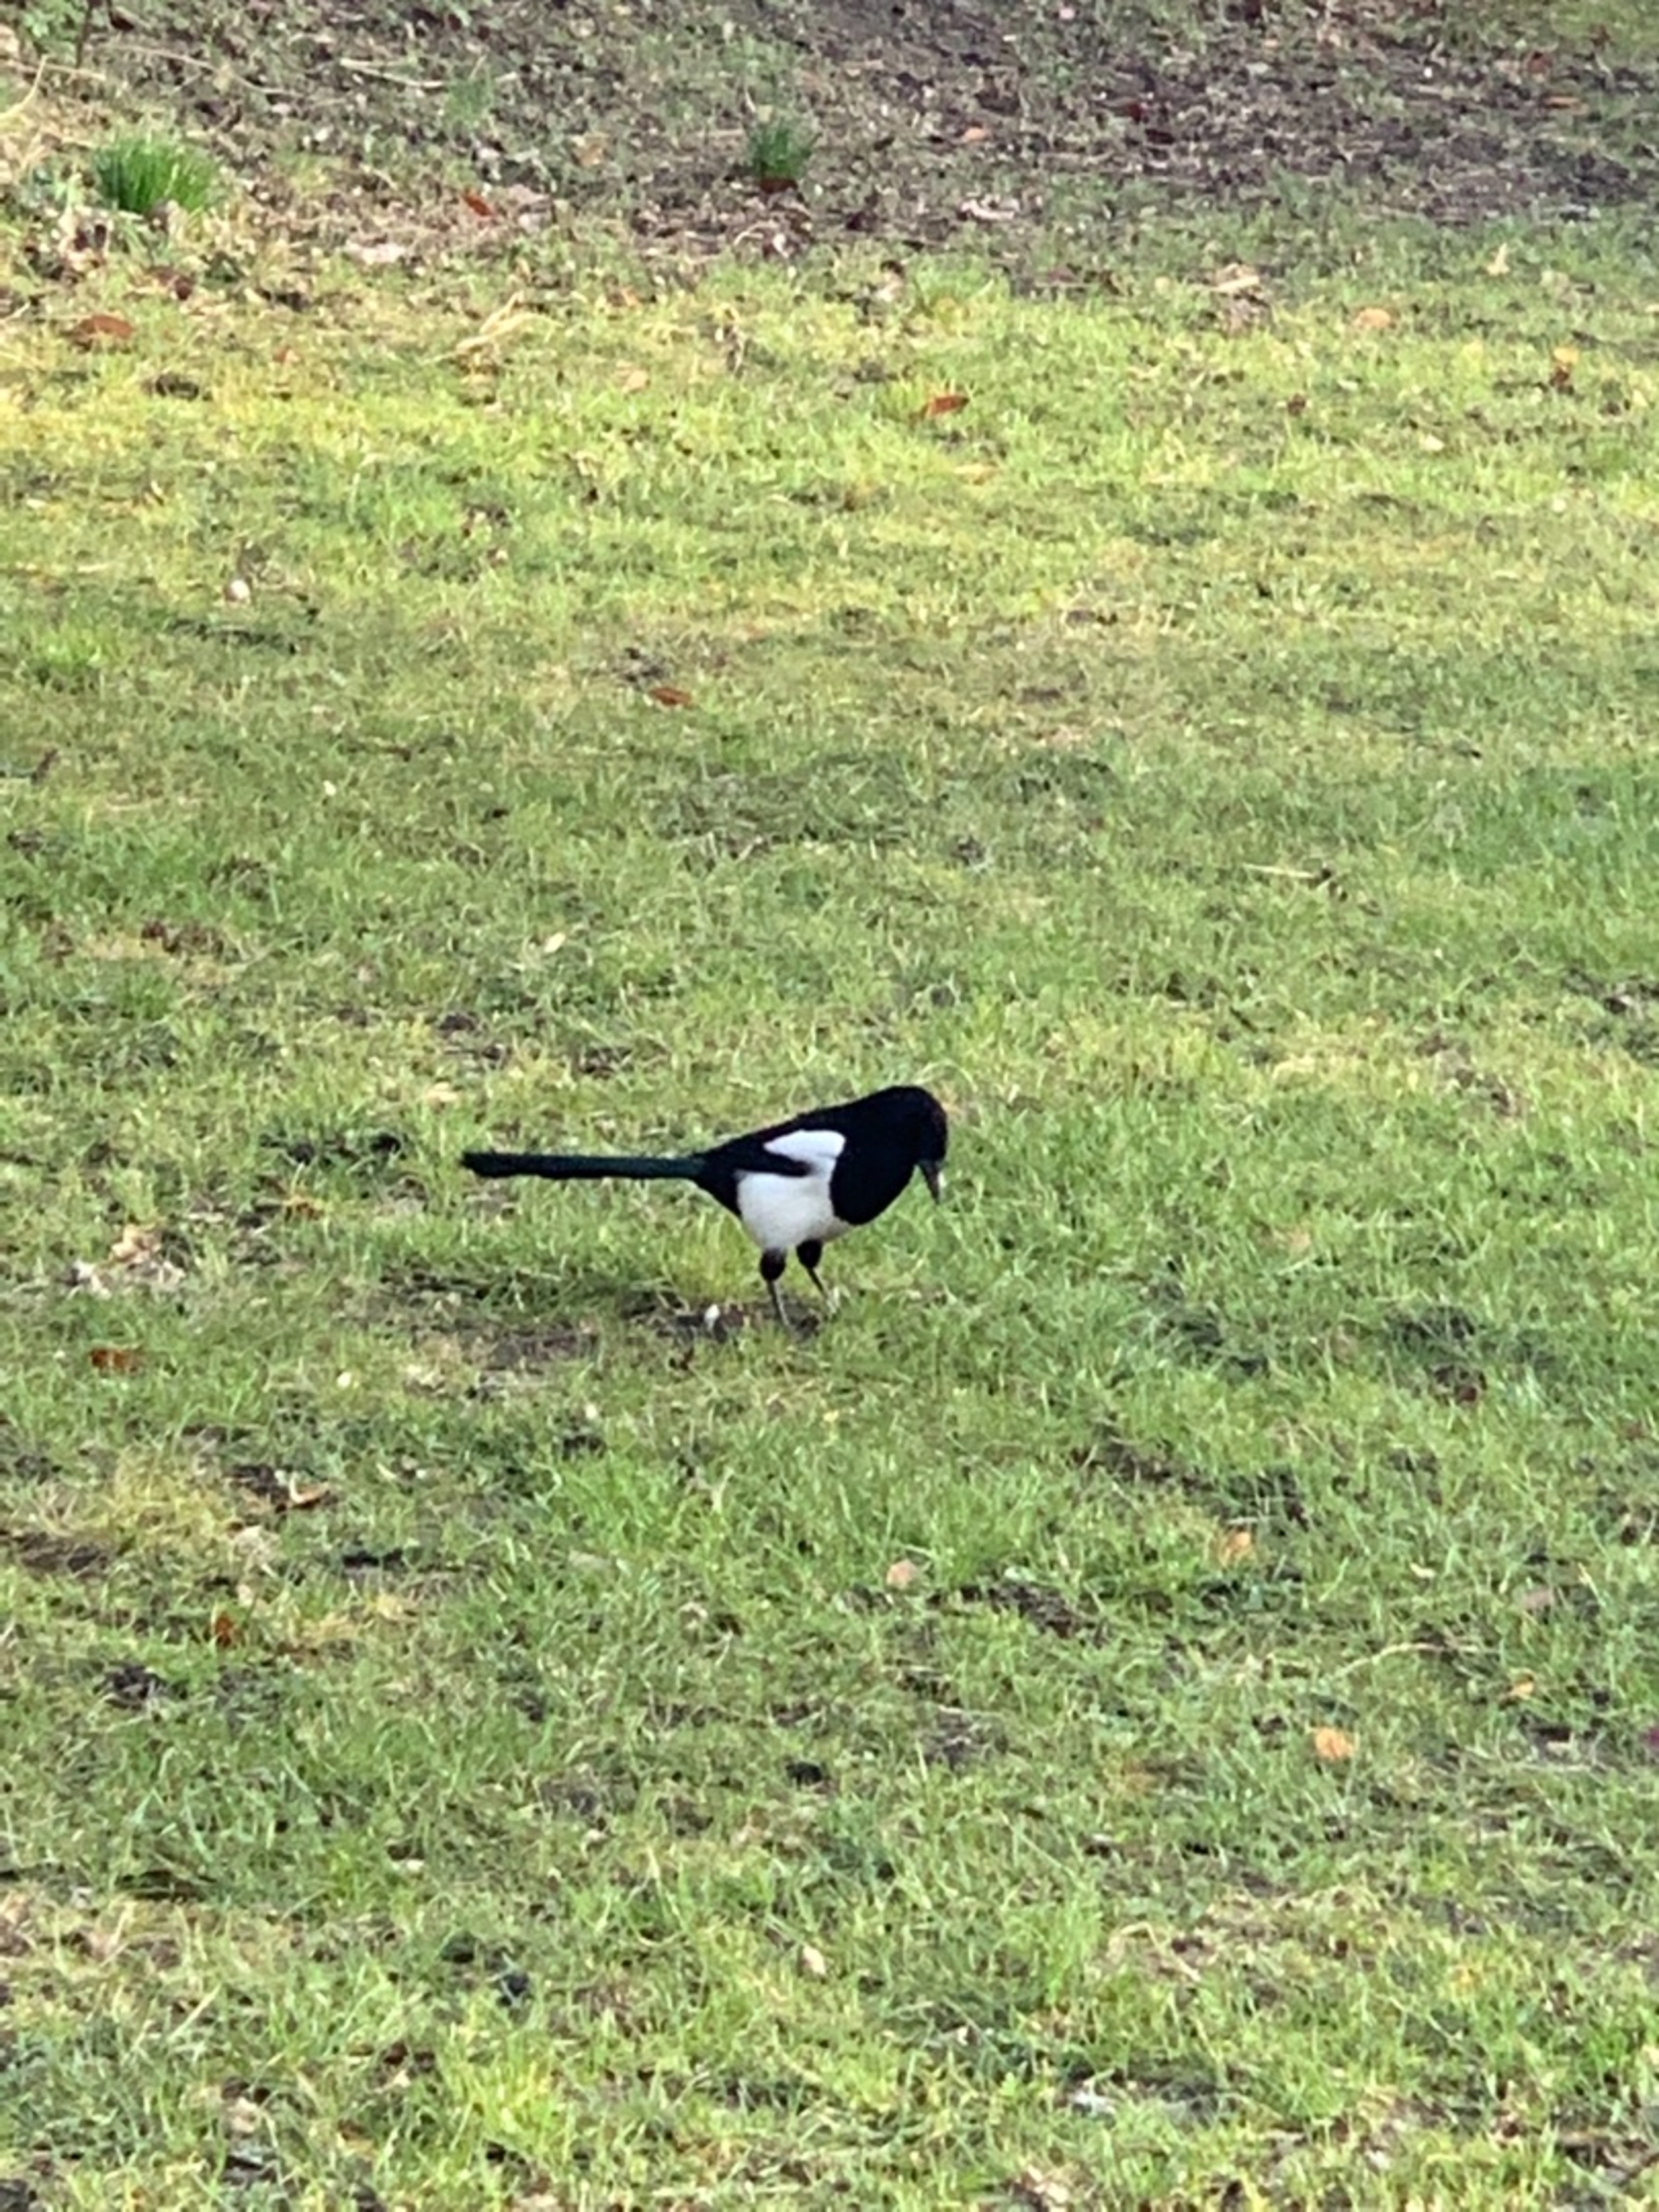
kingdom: Animalia
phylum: Chordata
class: Aves
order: Passeriformes
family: Corvidae
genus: Pica
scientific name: Pica pica
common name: Husskade
